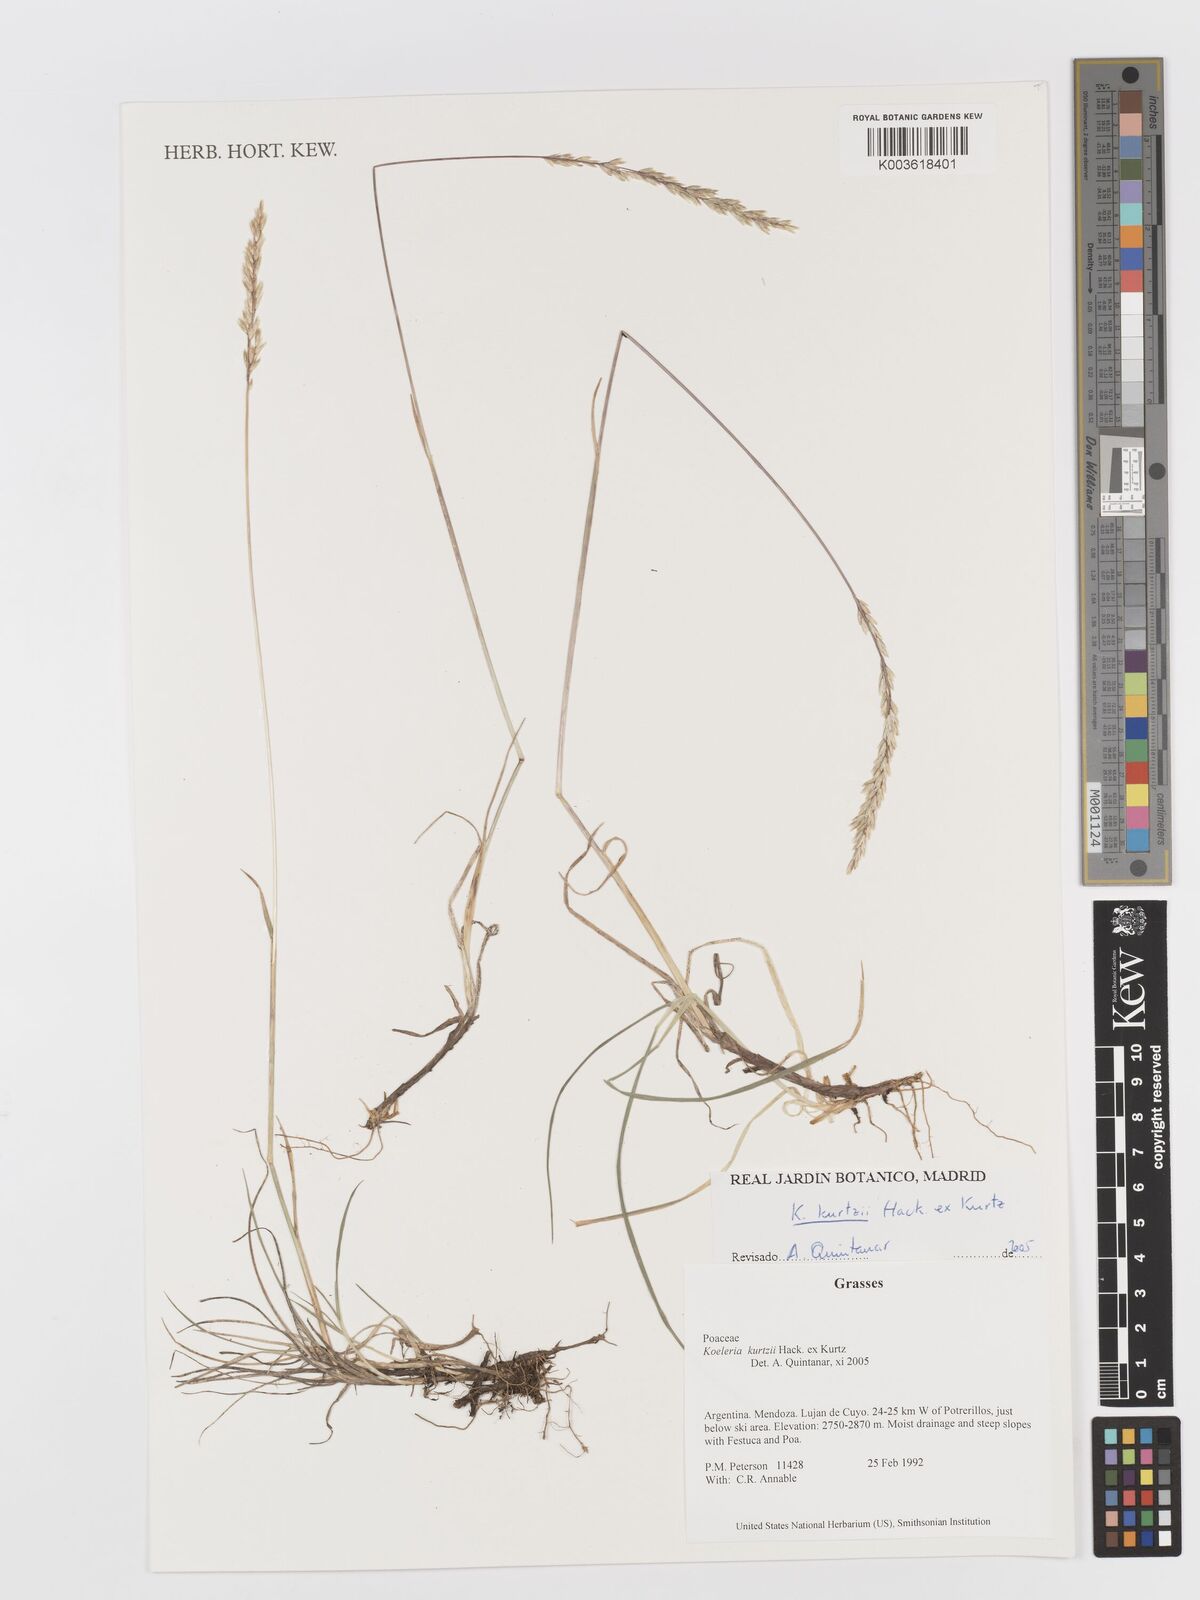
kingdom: Plantae
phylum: Tracheophyta
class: Liliopsida
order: Poales
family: Poaceae
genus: Koeleria
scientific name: Koeleria kurtzii
